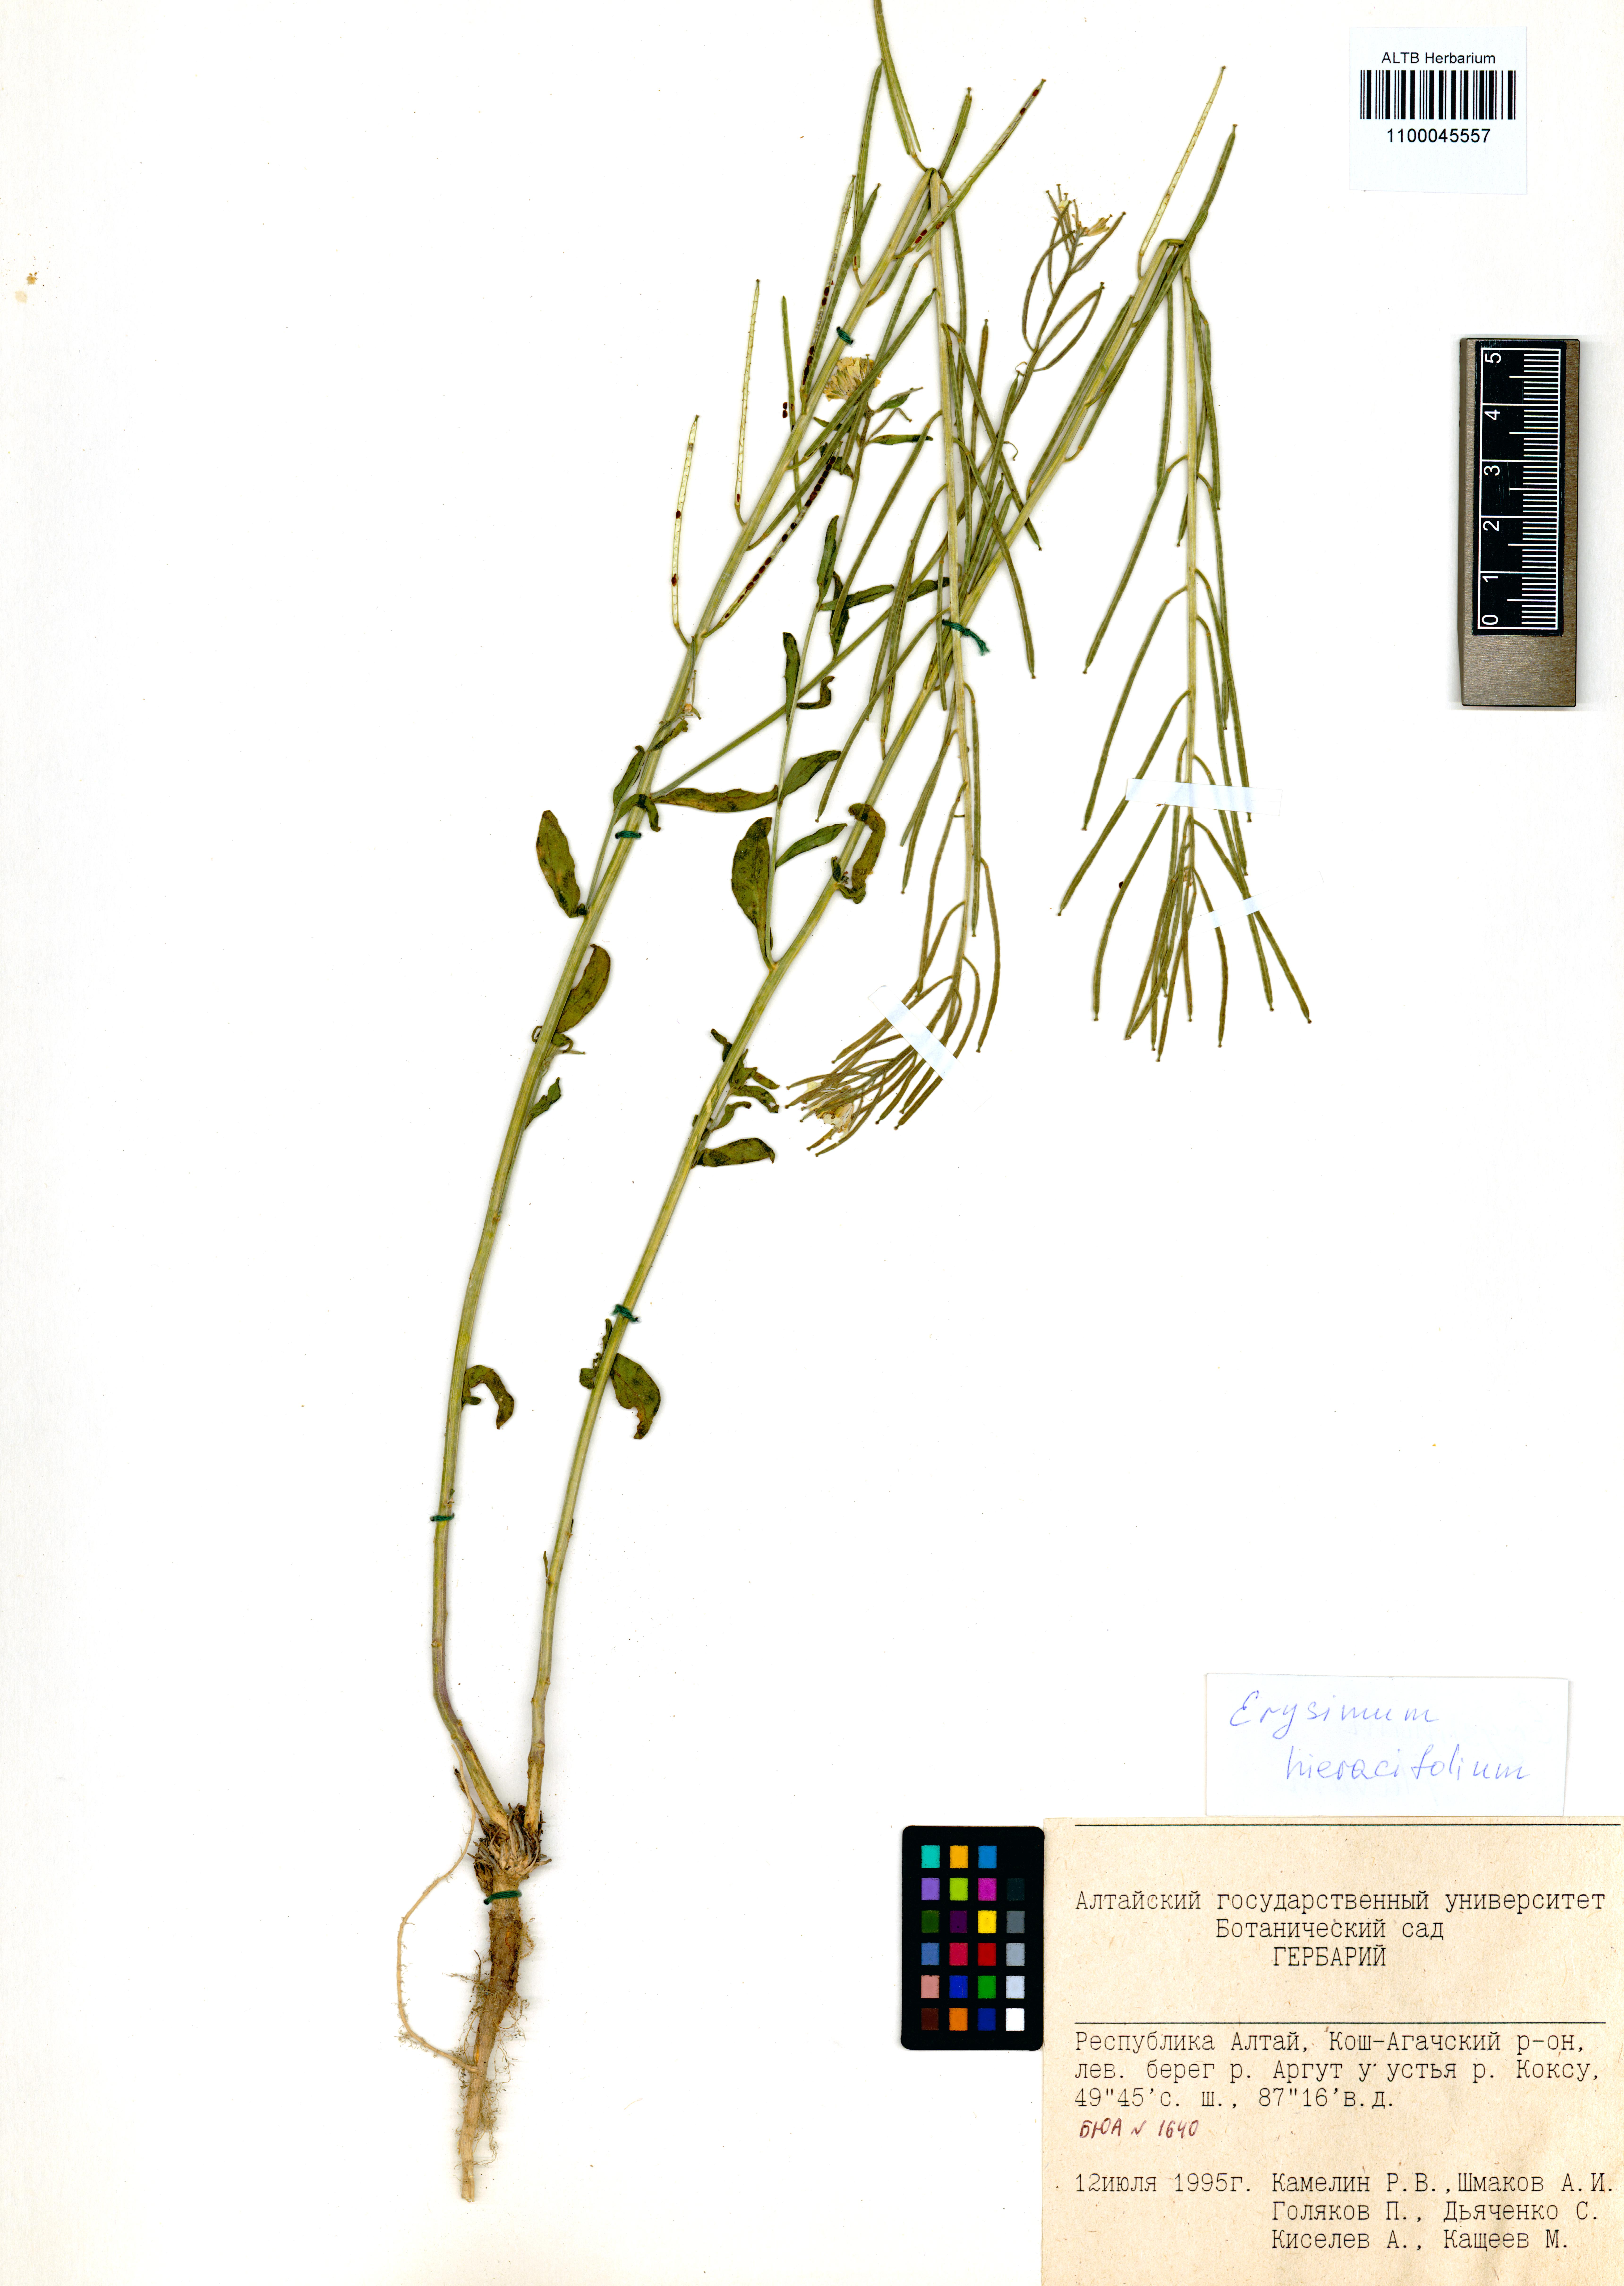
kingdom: Plantae
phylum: Tracheophyta
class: Magnoliopsida
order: Brassicales
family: Brassicaceae
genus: Erysimum
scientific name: Erysimum hieraciifolium
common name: European wallflower
